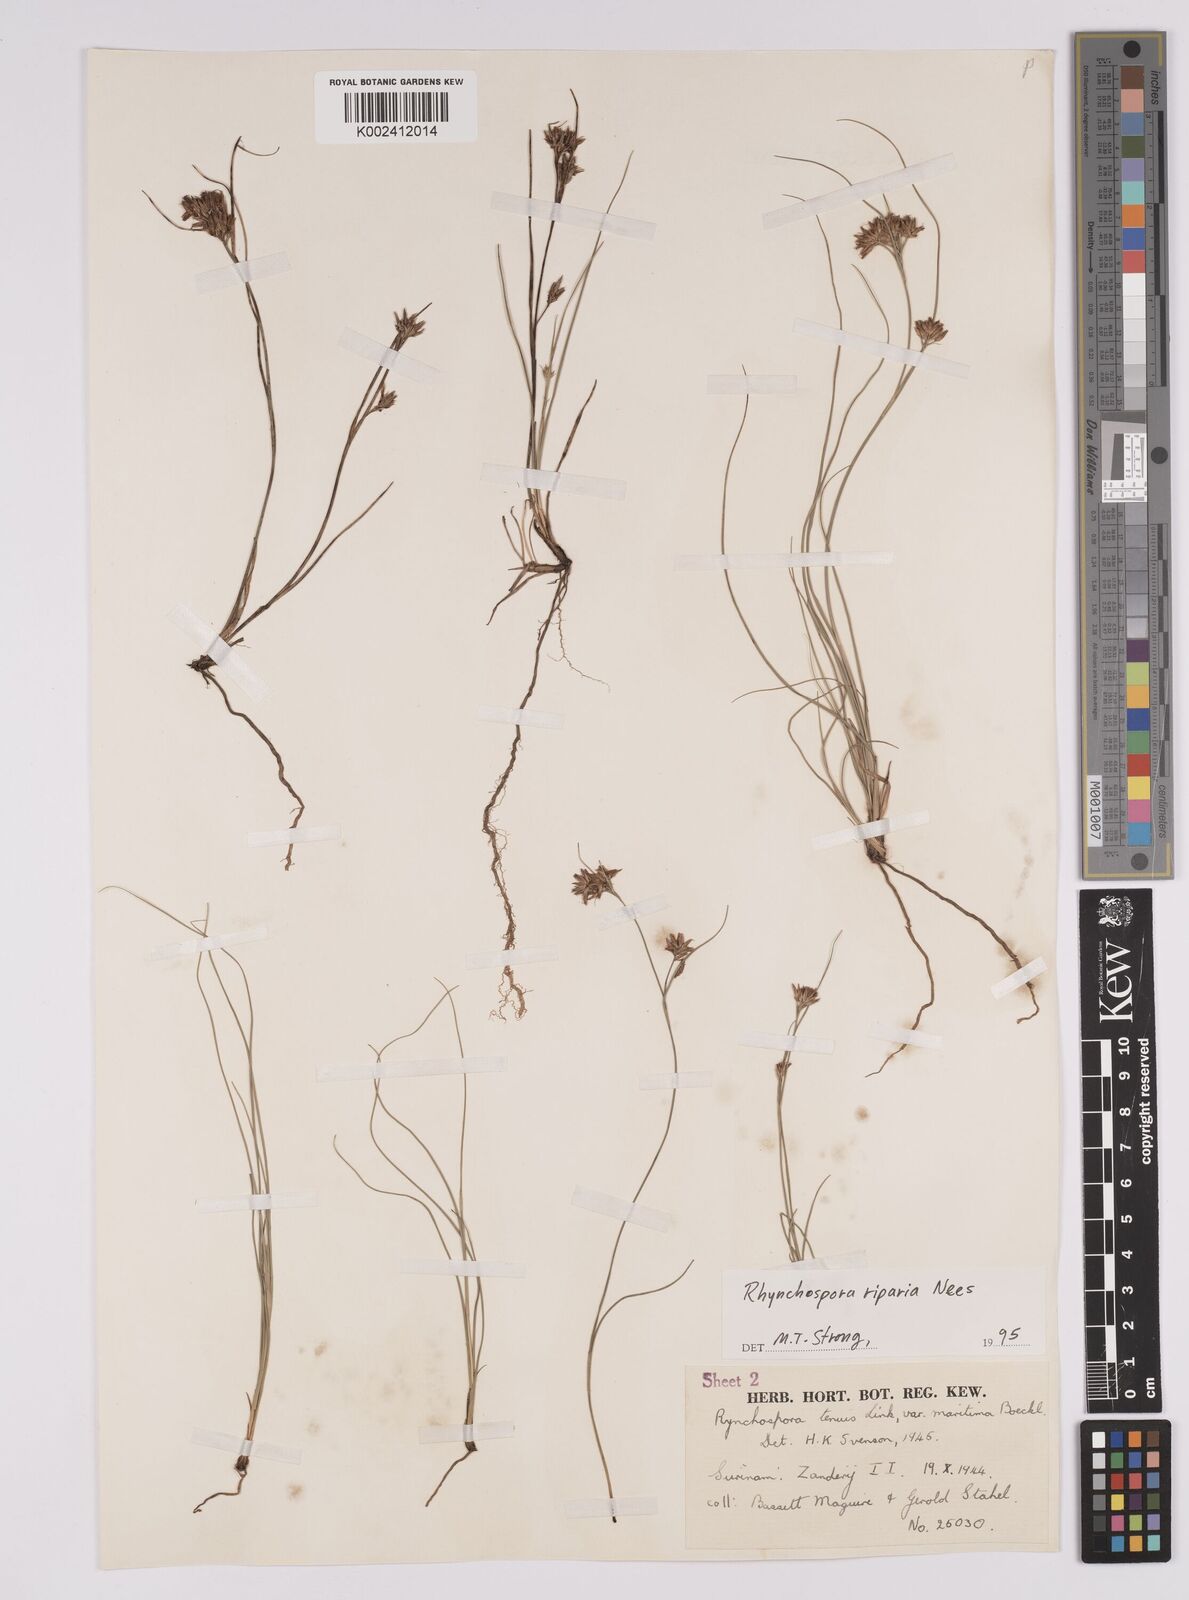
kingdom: Plantae
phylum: Tracheophyta
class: Liliopsida
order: Poales
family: Cyperaceae
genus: Rhynchospora
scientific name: Rhynchospora riparia
